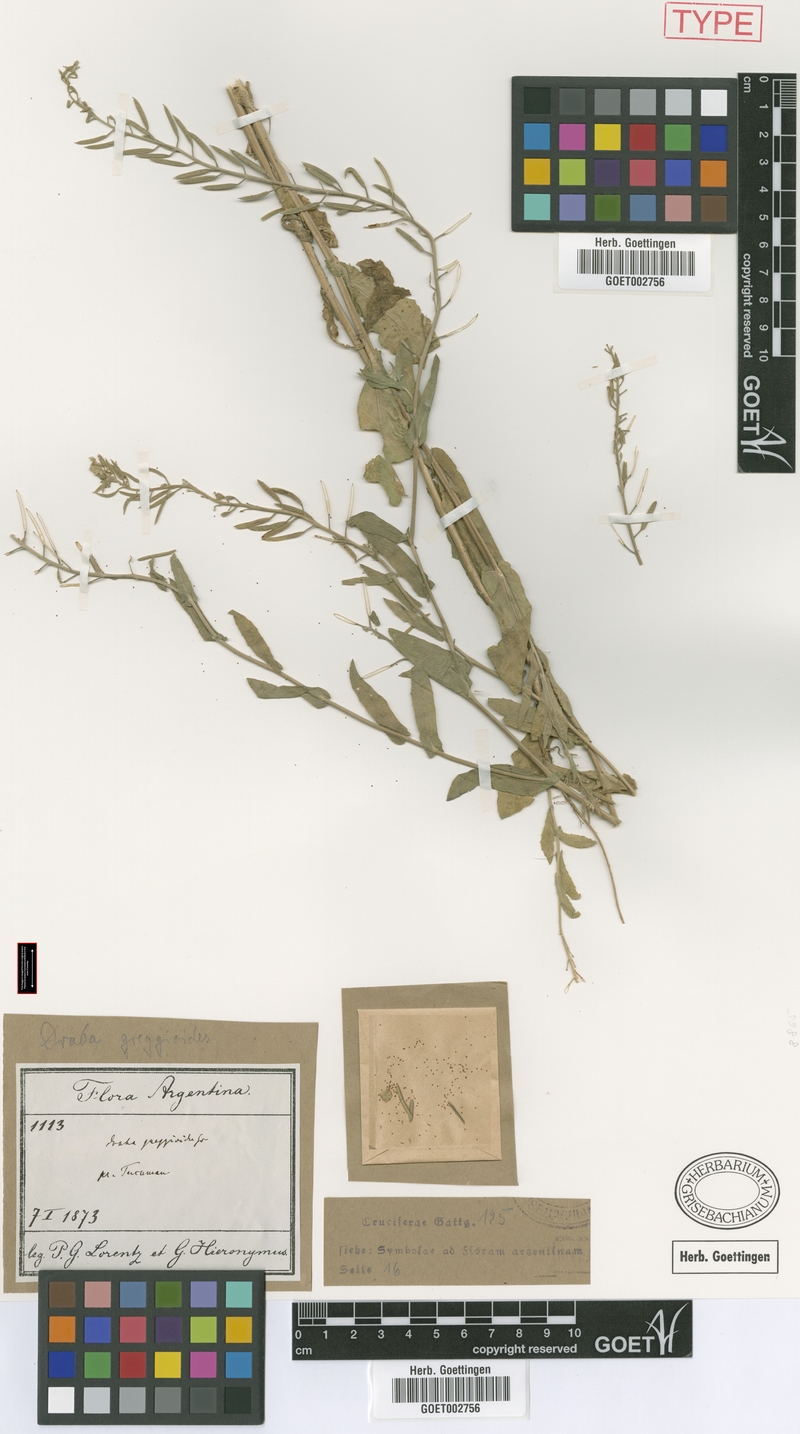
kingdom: Plantae
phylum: Tracheophyta
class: Magnoliopsida
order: Brassicales
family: Brassicaceae
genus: Exhalimolobos
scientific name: Exhalimolobos weddellii
